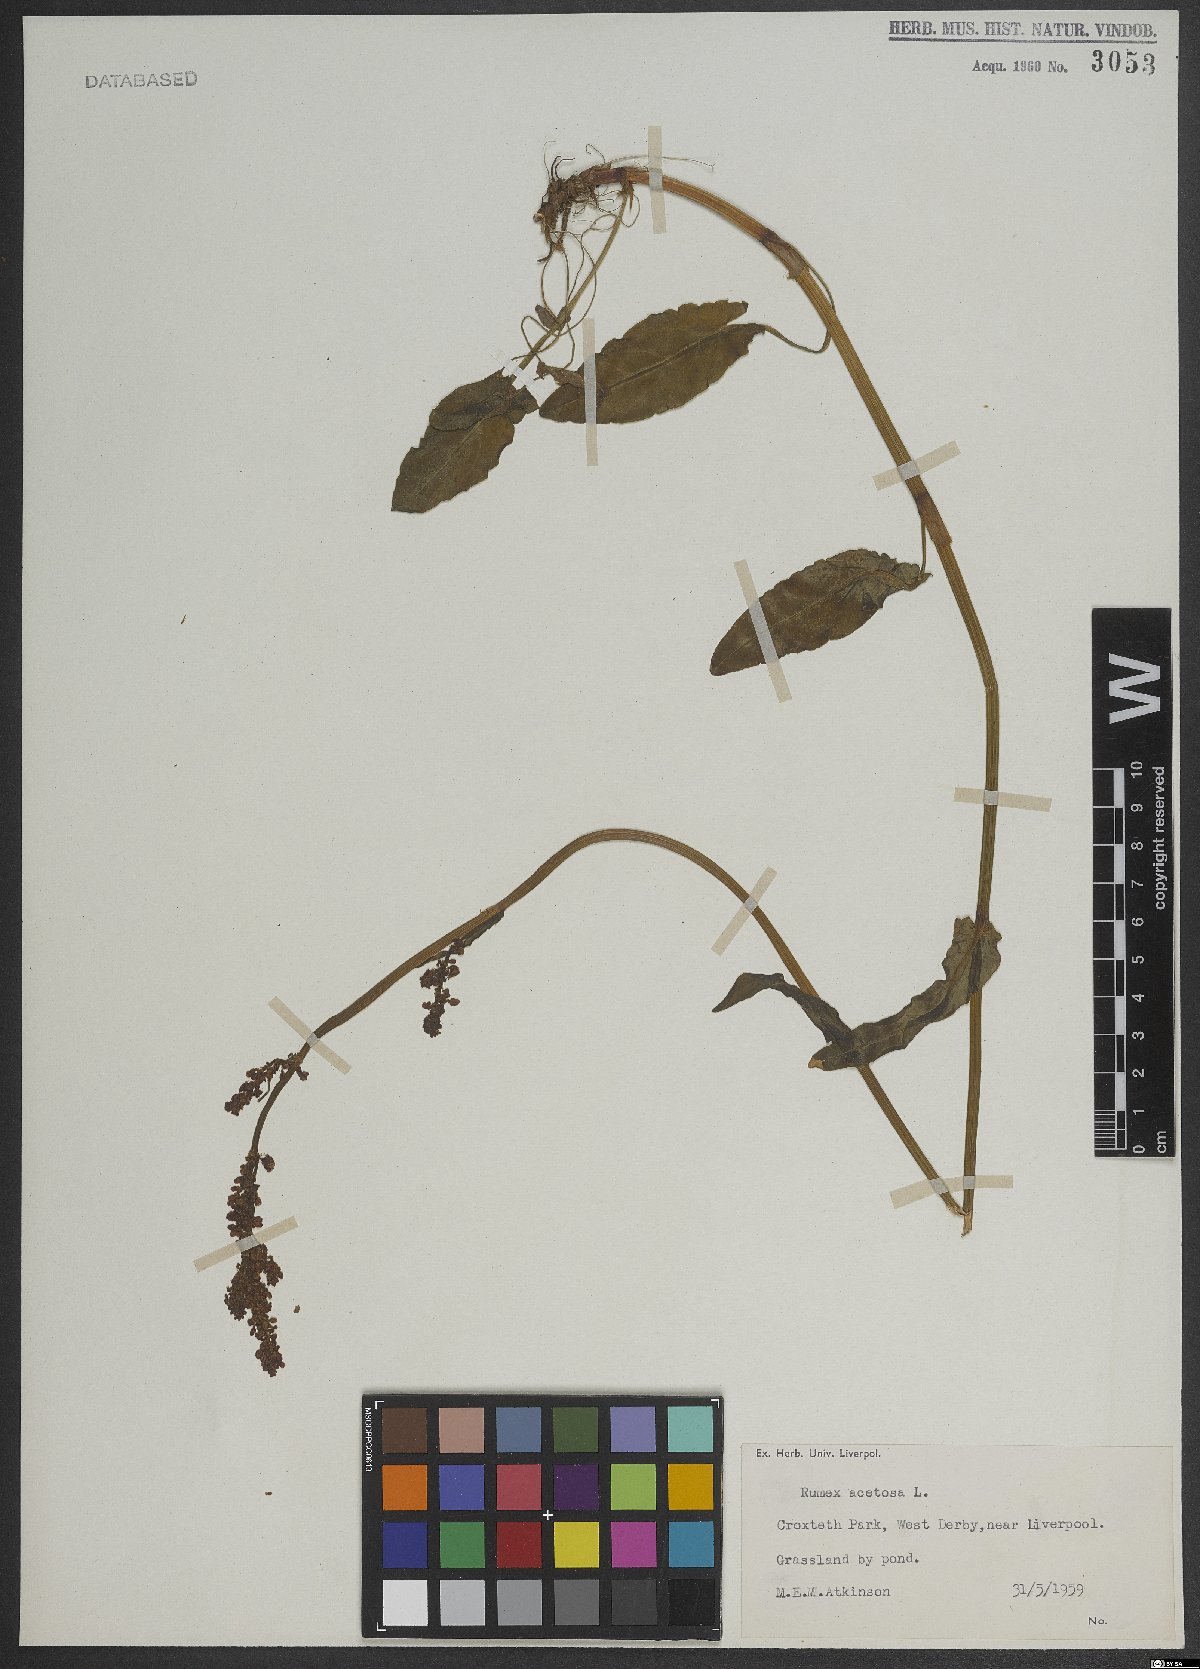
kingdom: Plantae
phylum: Tracheophyta
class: Magnoliopsida
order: Caryophyllales
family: Polygonaceae
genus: Rumex
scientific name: Rumex acetosa
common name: Garden sorrel
